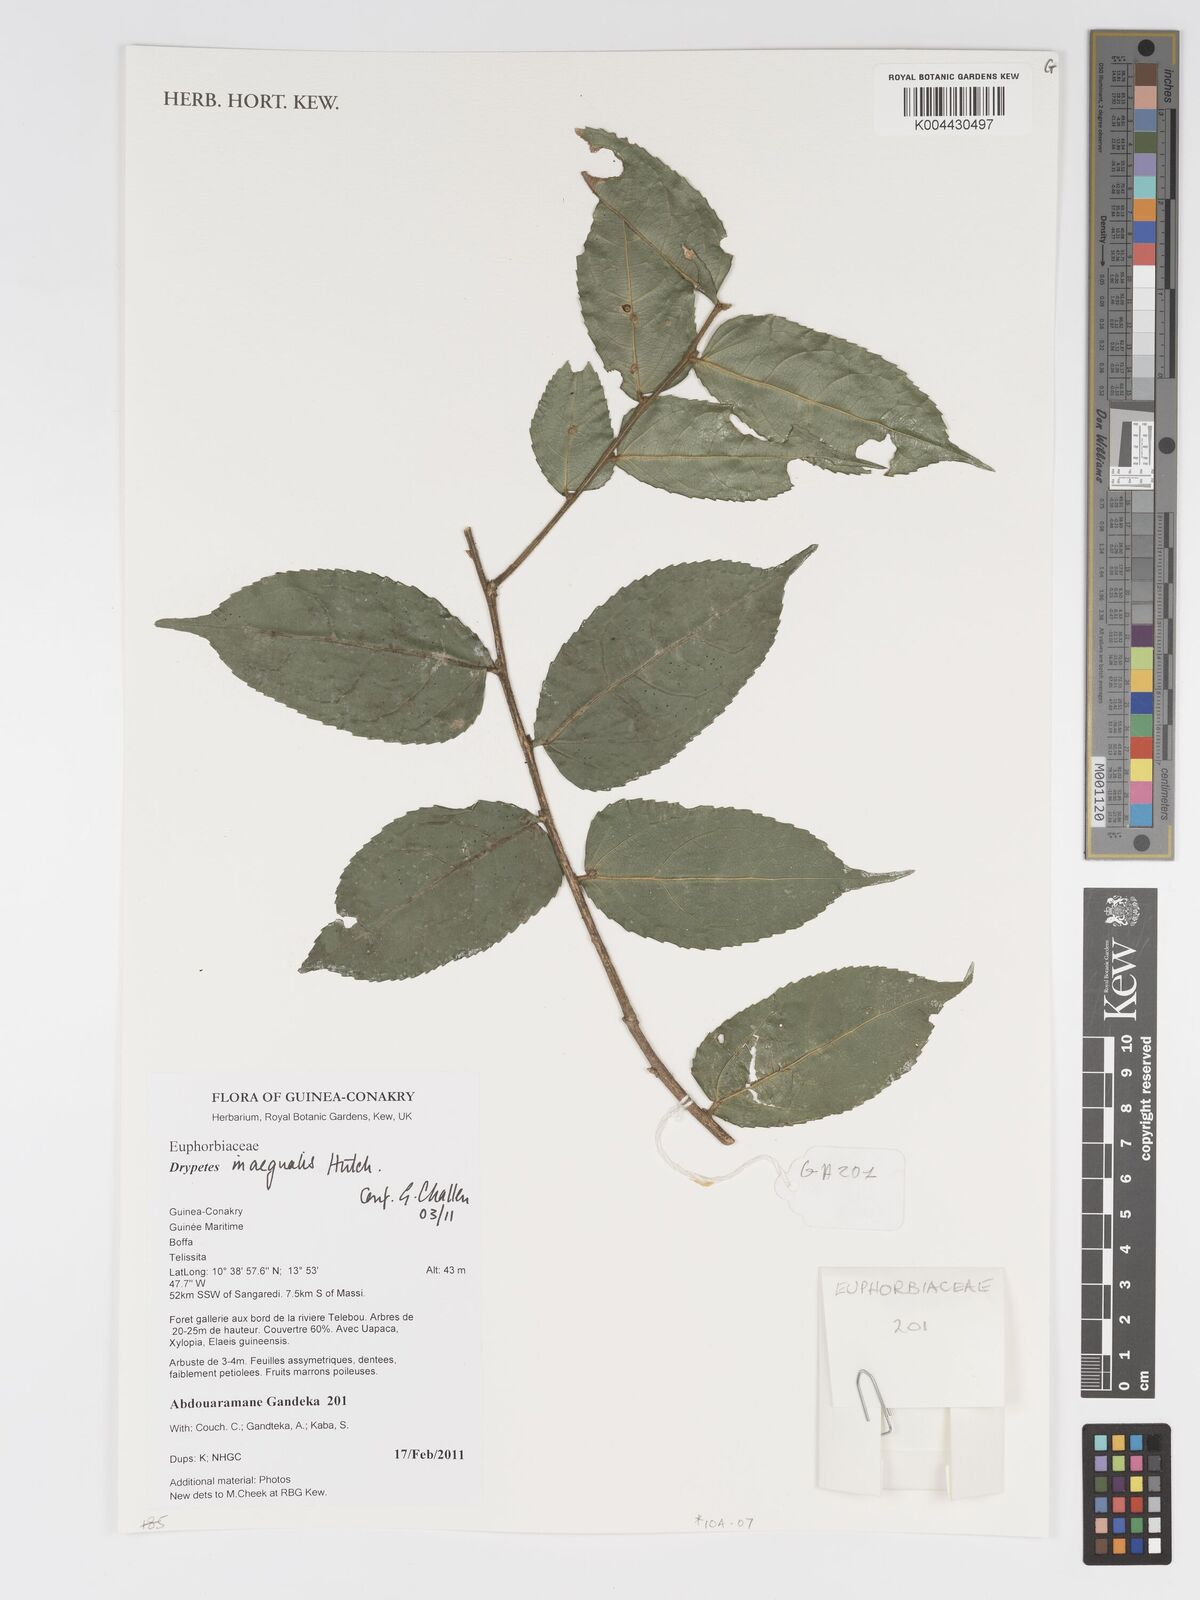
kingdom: Plantae
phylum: Tracheophyta
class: Magnoliopsida
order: Malpighiales
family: Putranjivaceae
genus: Drypetes
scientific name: Drypetes inaequalis
